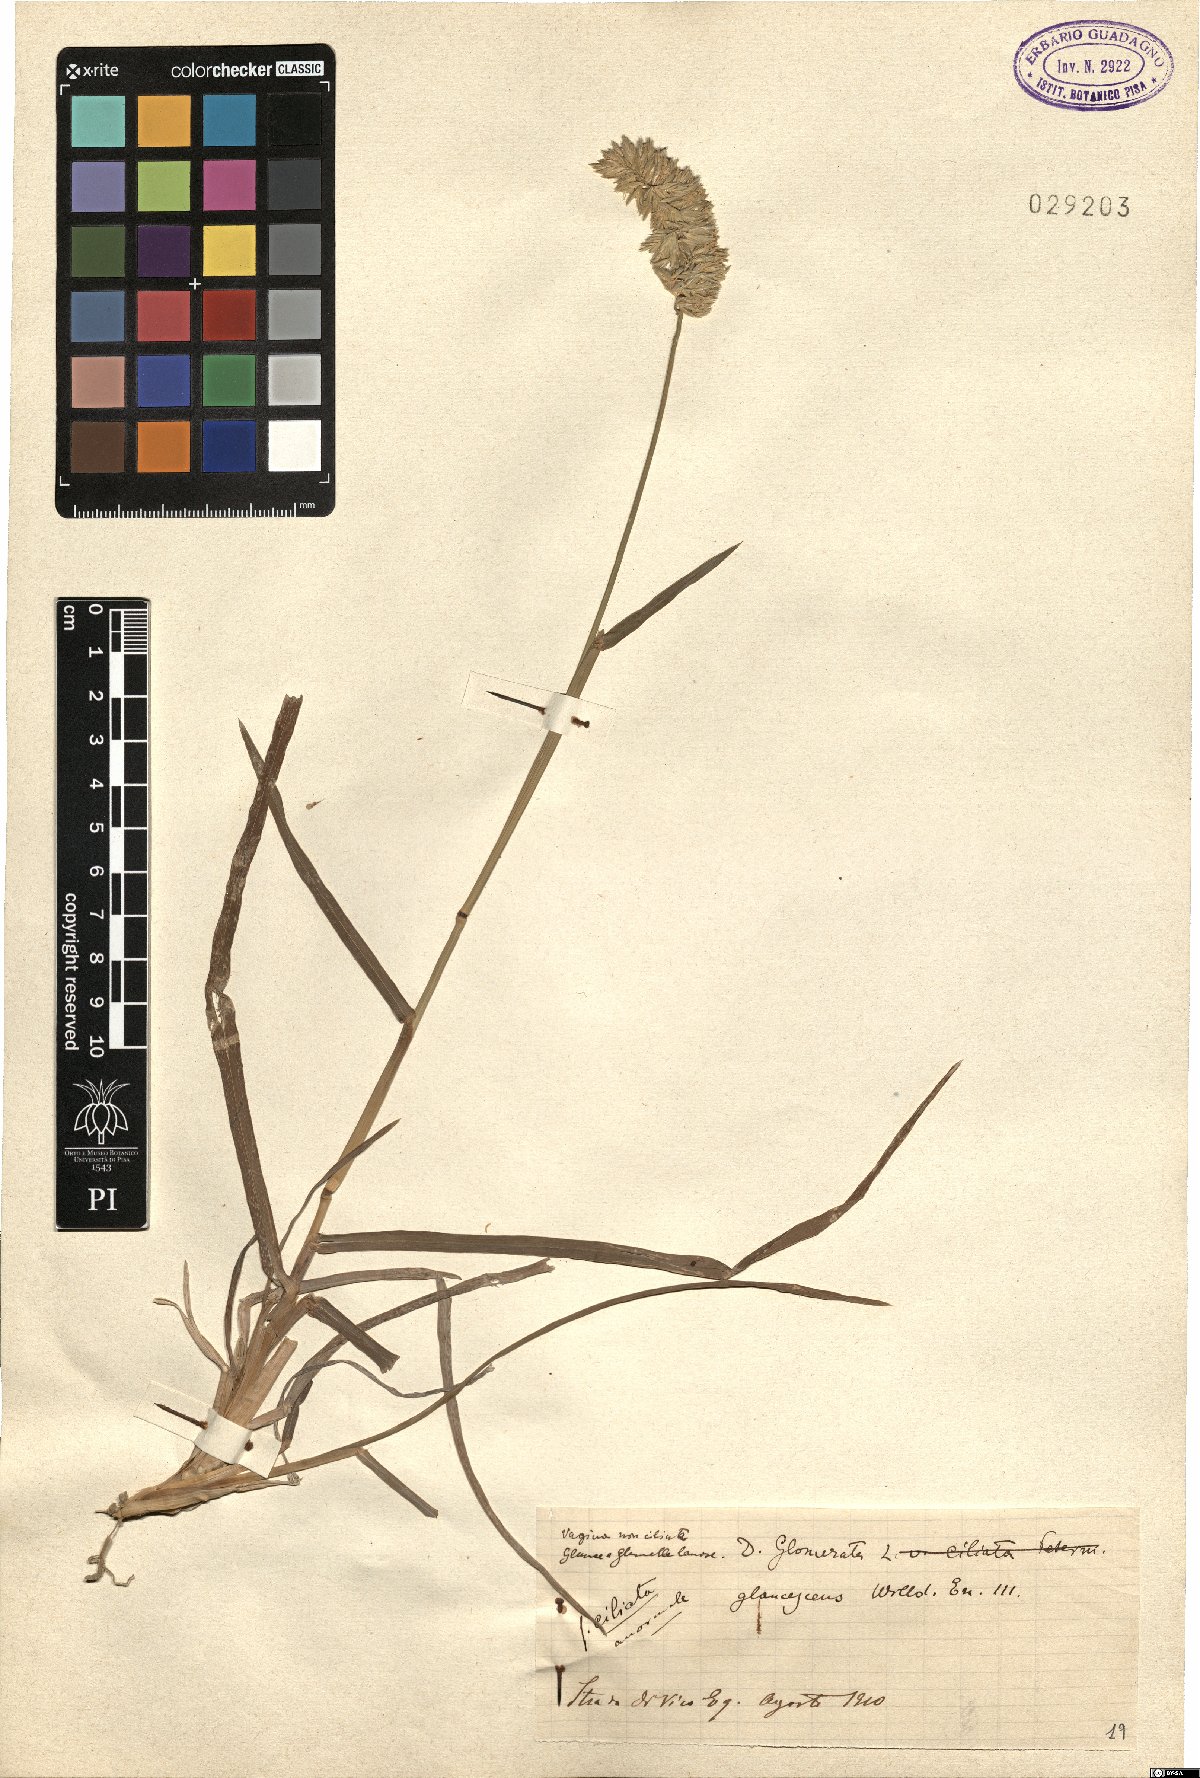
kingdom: Plantae
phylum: Tracheophyta
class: Liliopsida
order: Poales
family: Poaceae
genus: Dactylis
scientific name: Dactylis glomerata
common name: Orchardgrass
